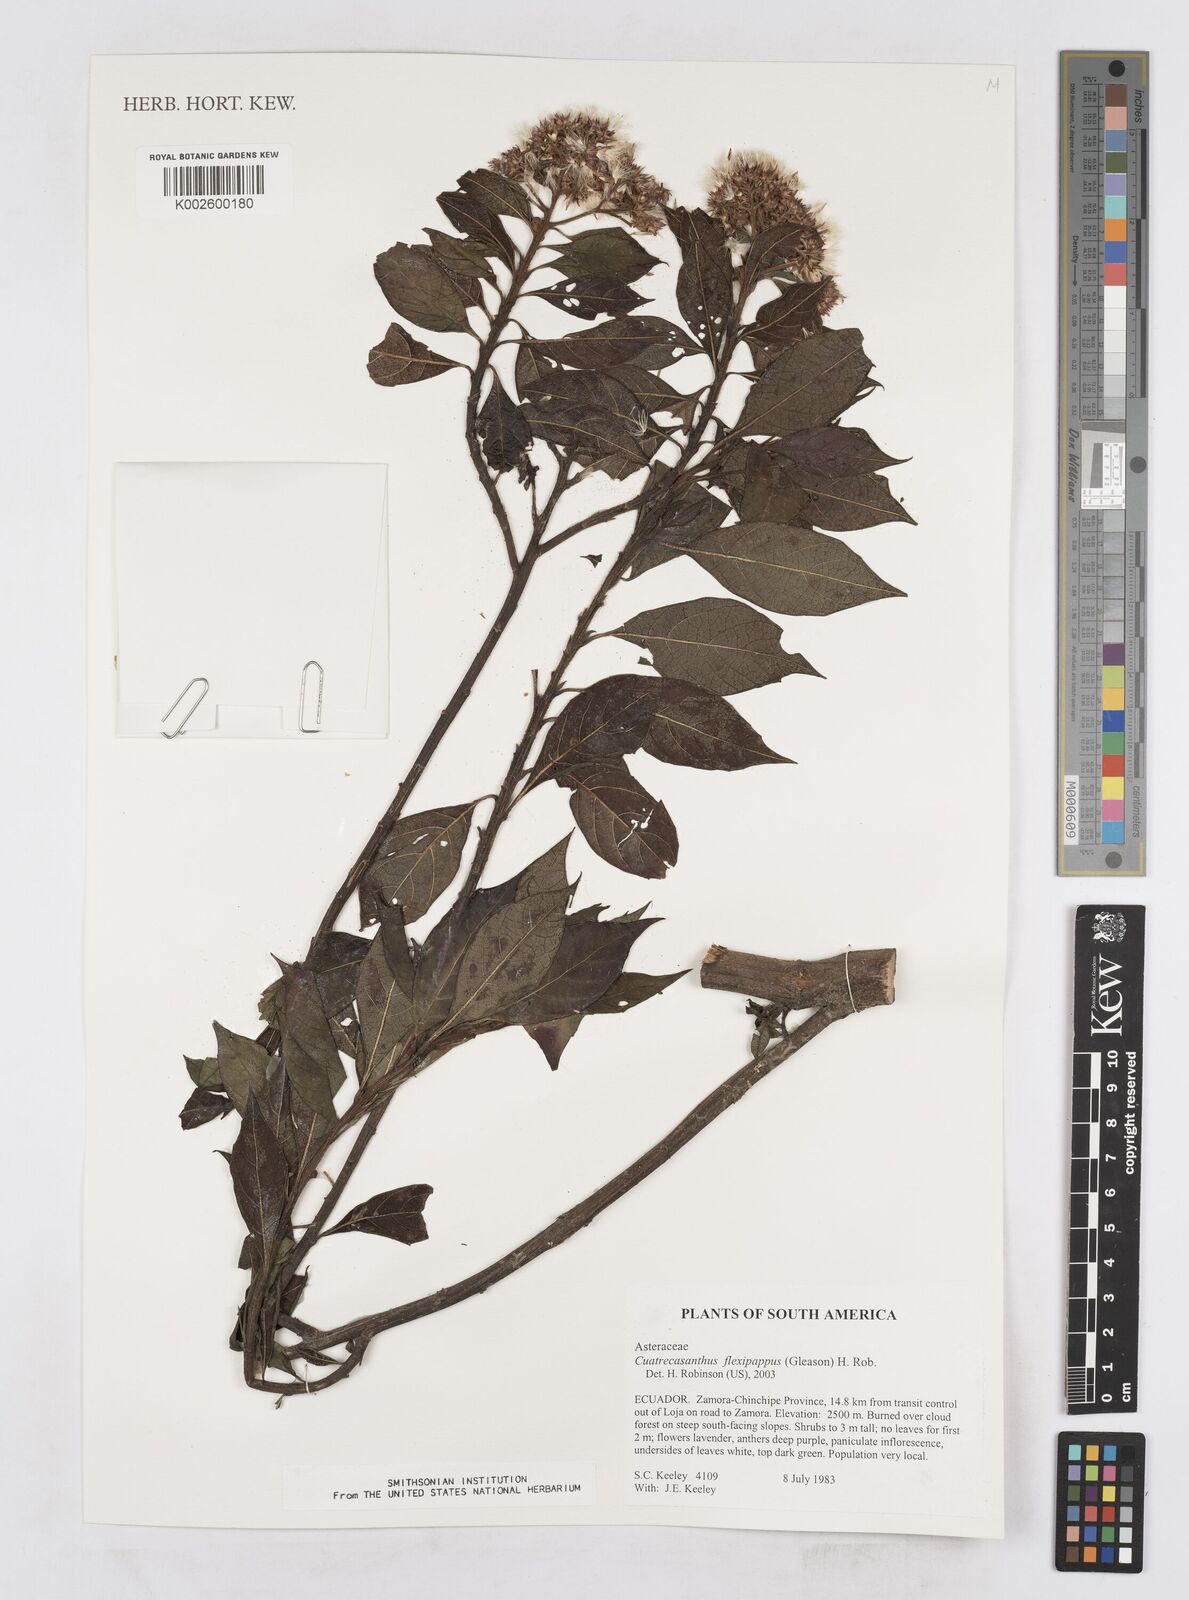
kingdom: Plantae
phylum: Tracheophyta
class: Magnoliopsida
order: Asterales
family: Asteraceae
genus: Cuatrecasanthus
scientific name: Cuatrecasanthus flexipappus
